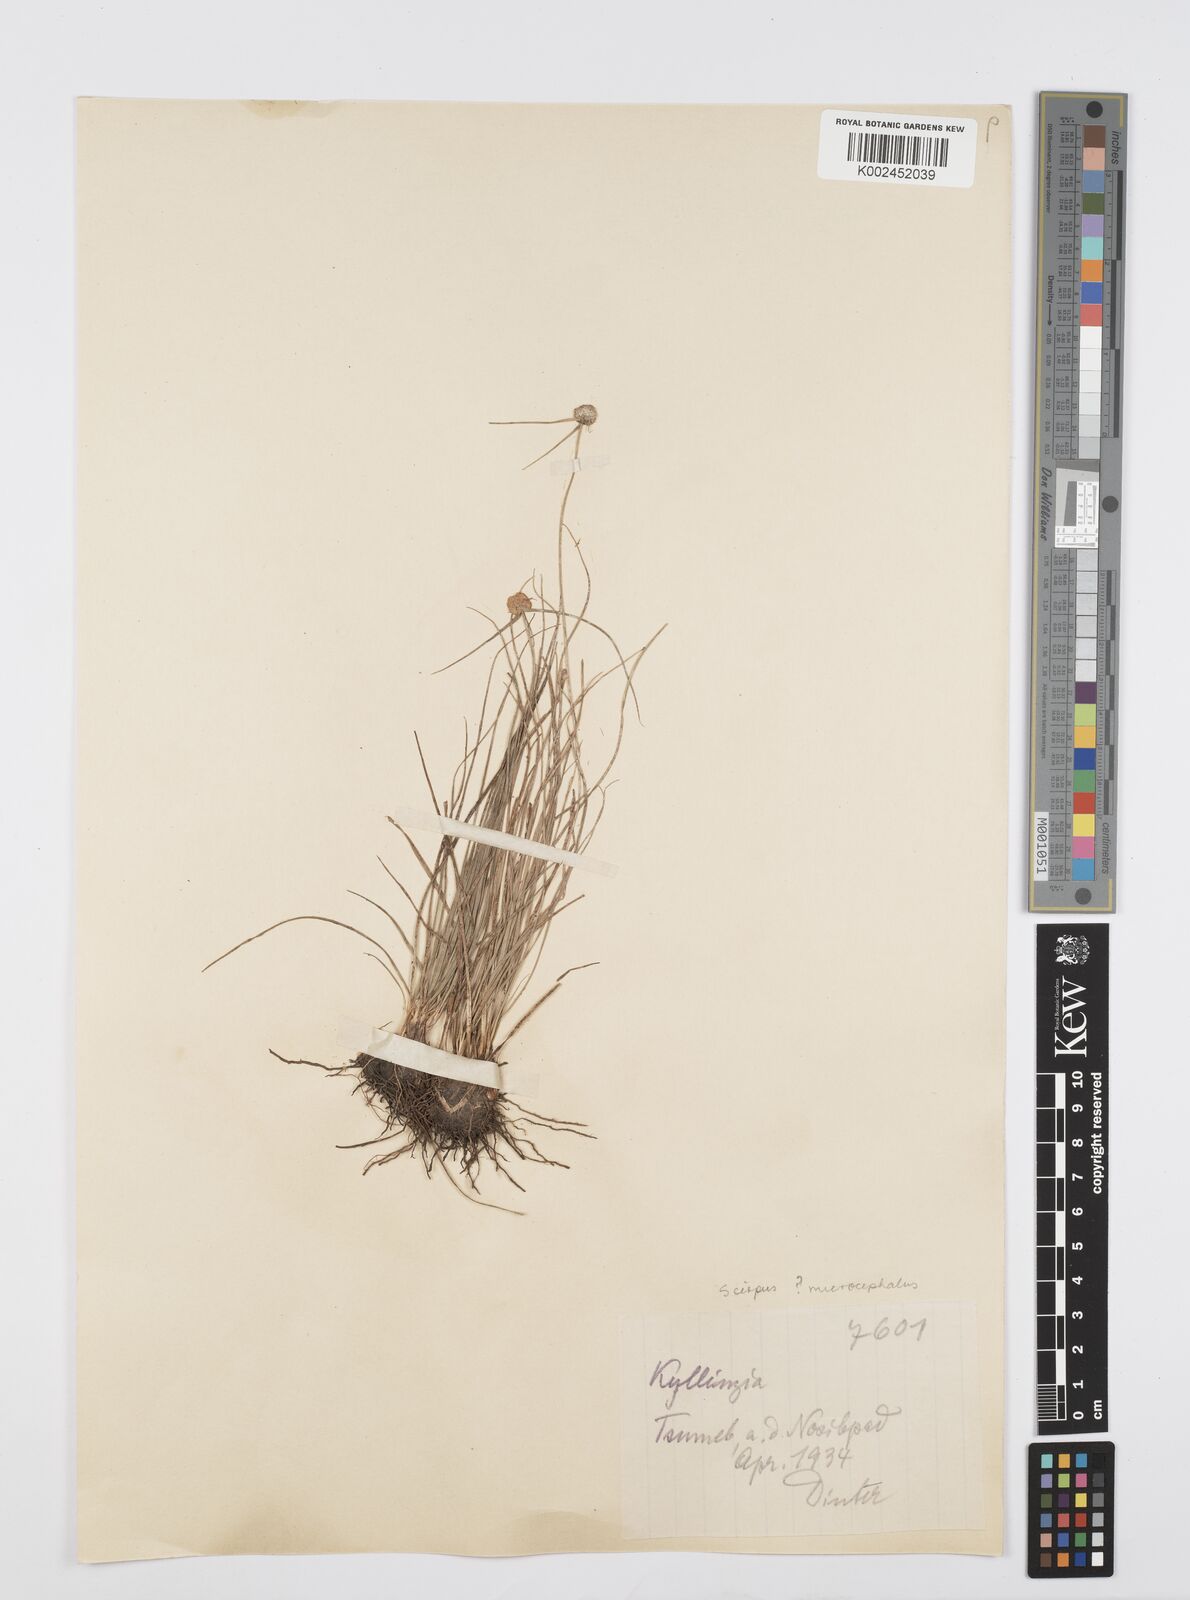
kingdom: Plantae
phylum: Tracheophyta
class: Liliopsida
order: Poales
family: Cyperaceae
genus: Cyperus
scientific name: Cyperus
